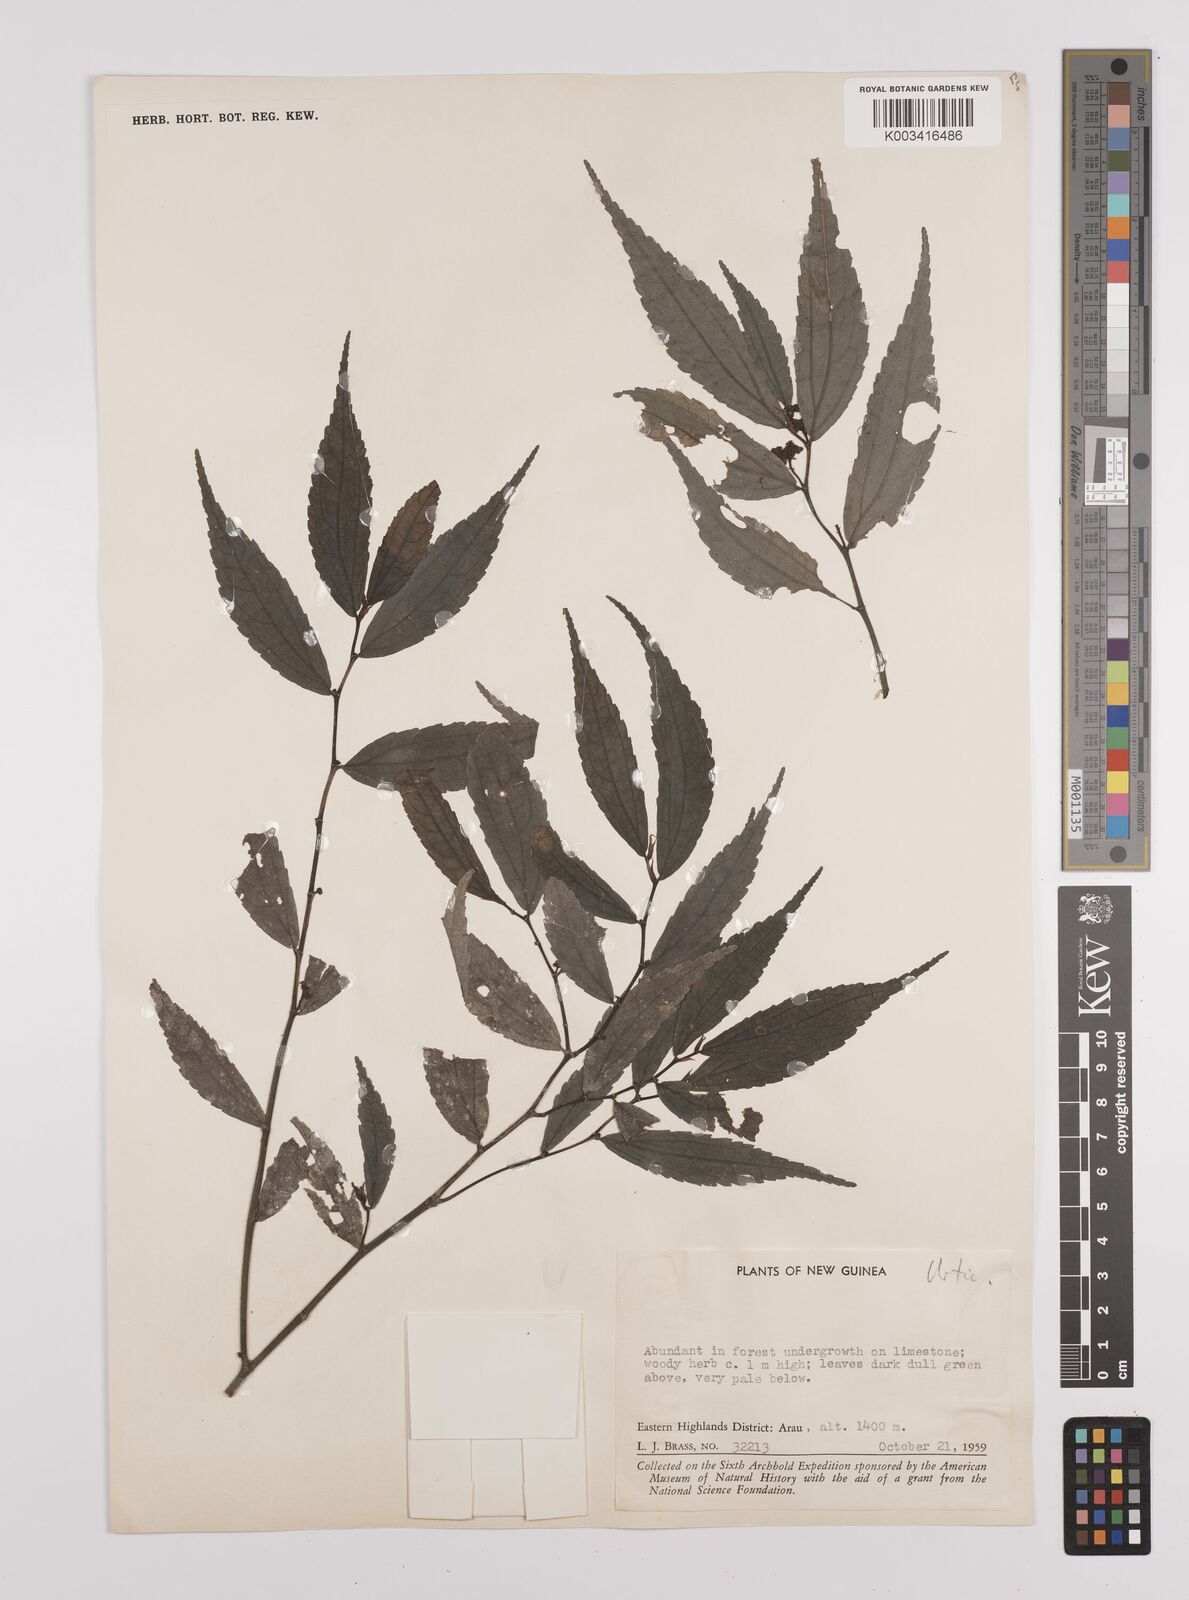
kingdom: Plantae
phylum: Tracheophyta
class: Magnoliopsida
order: Rosales
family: Urticaceae
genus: Elatostema
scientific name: Elatostema
